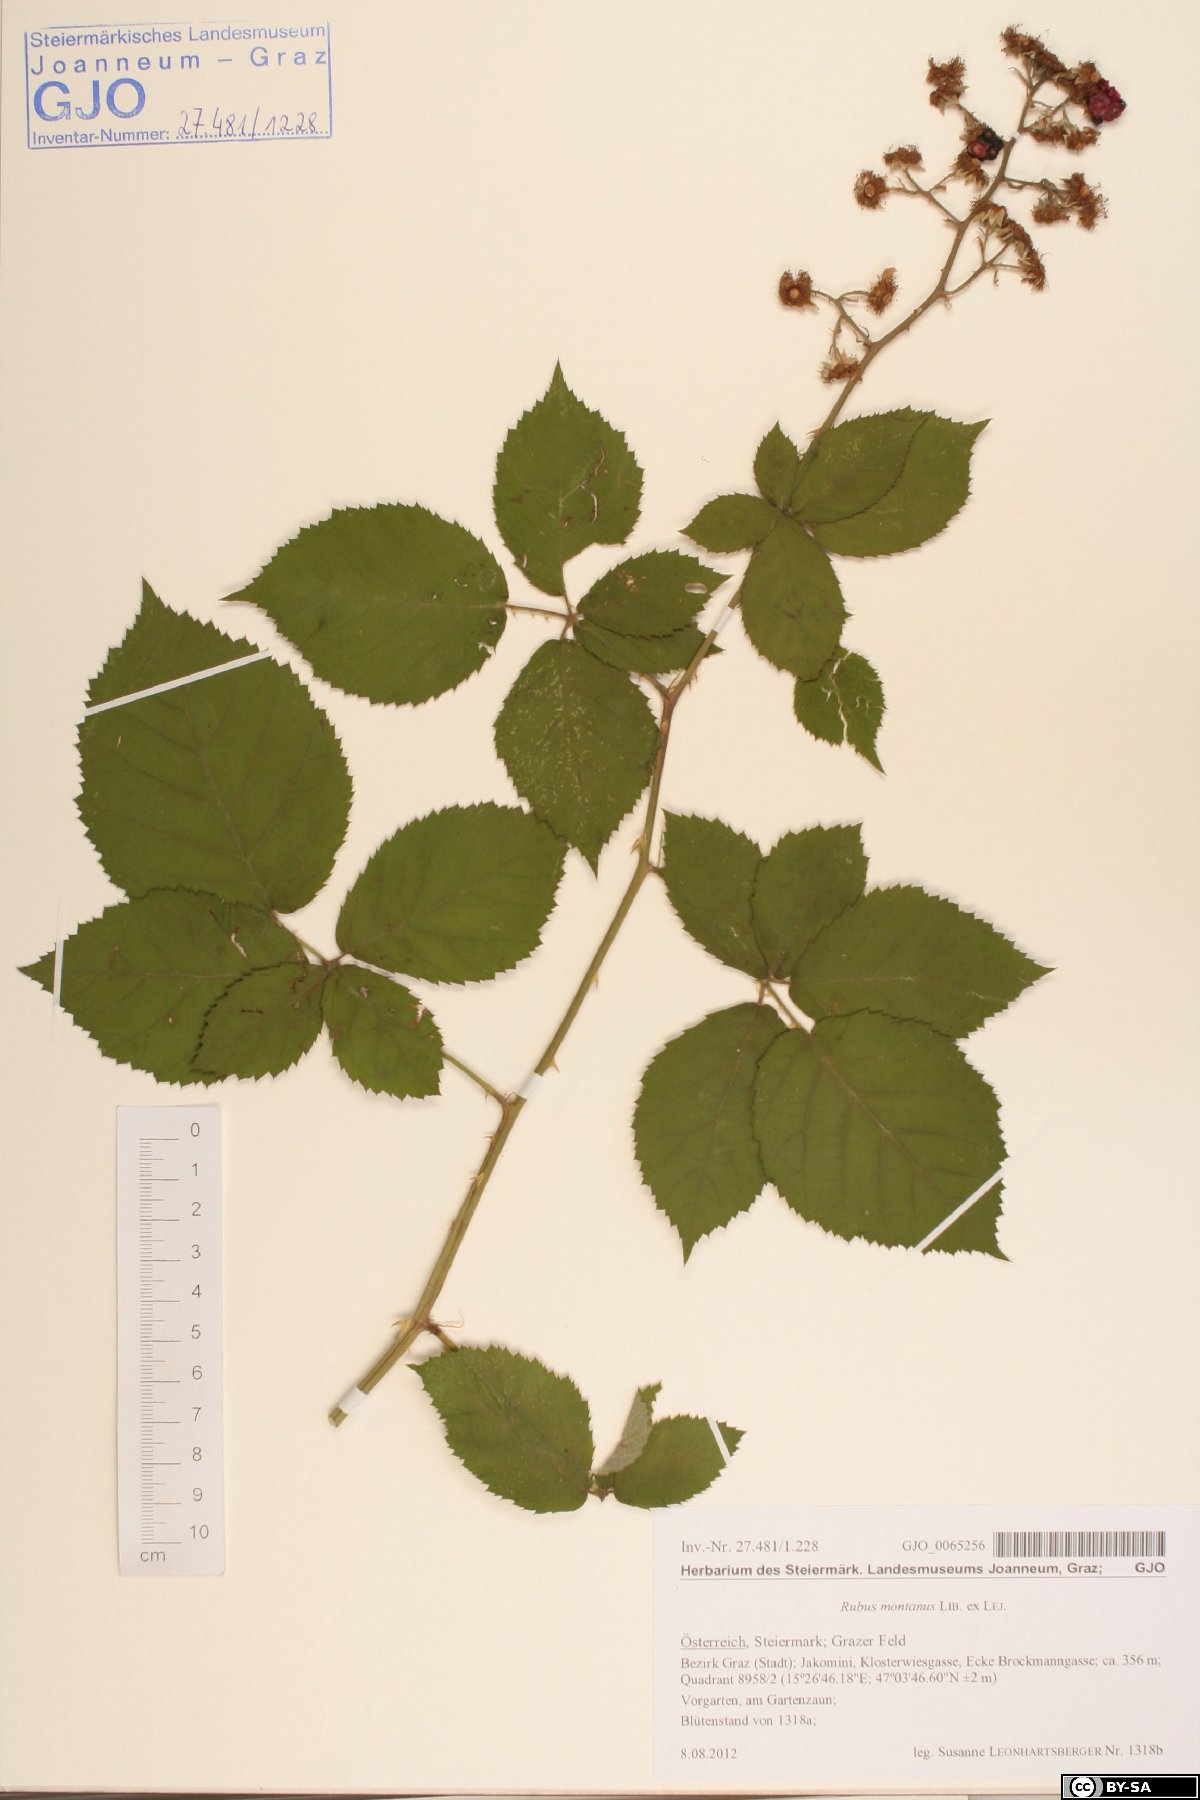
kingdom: Plantae
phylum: Tracheophyta
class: Magnoliopsida
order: Rosales
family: Rosaceae
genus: Rubus
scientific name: Rubus montanus
